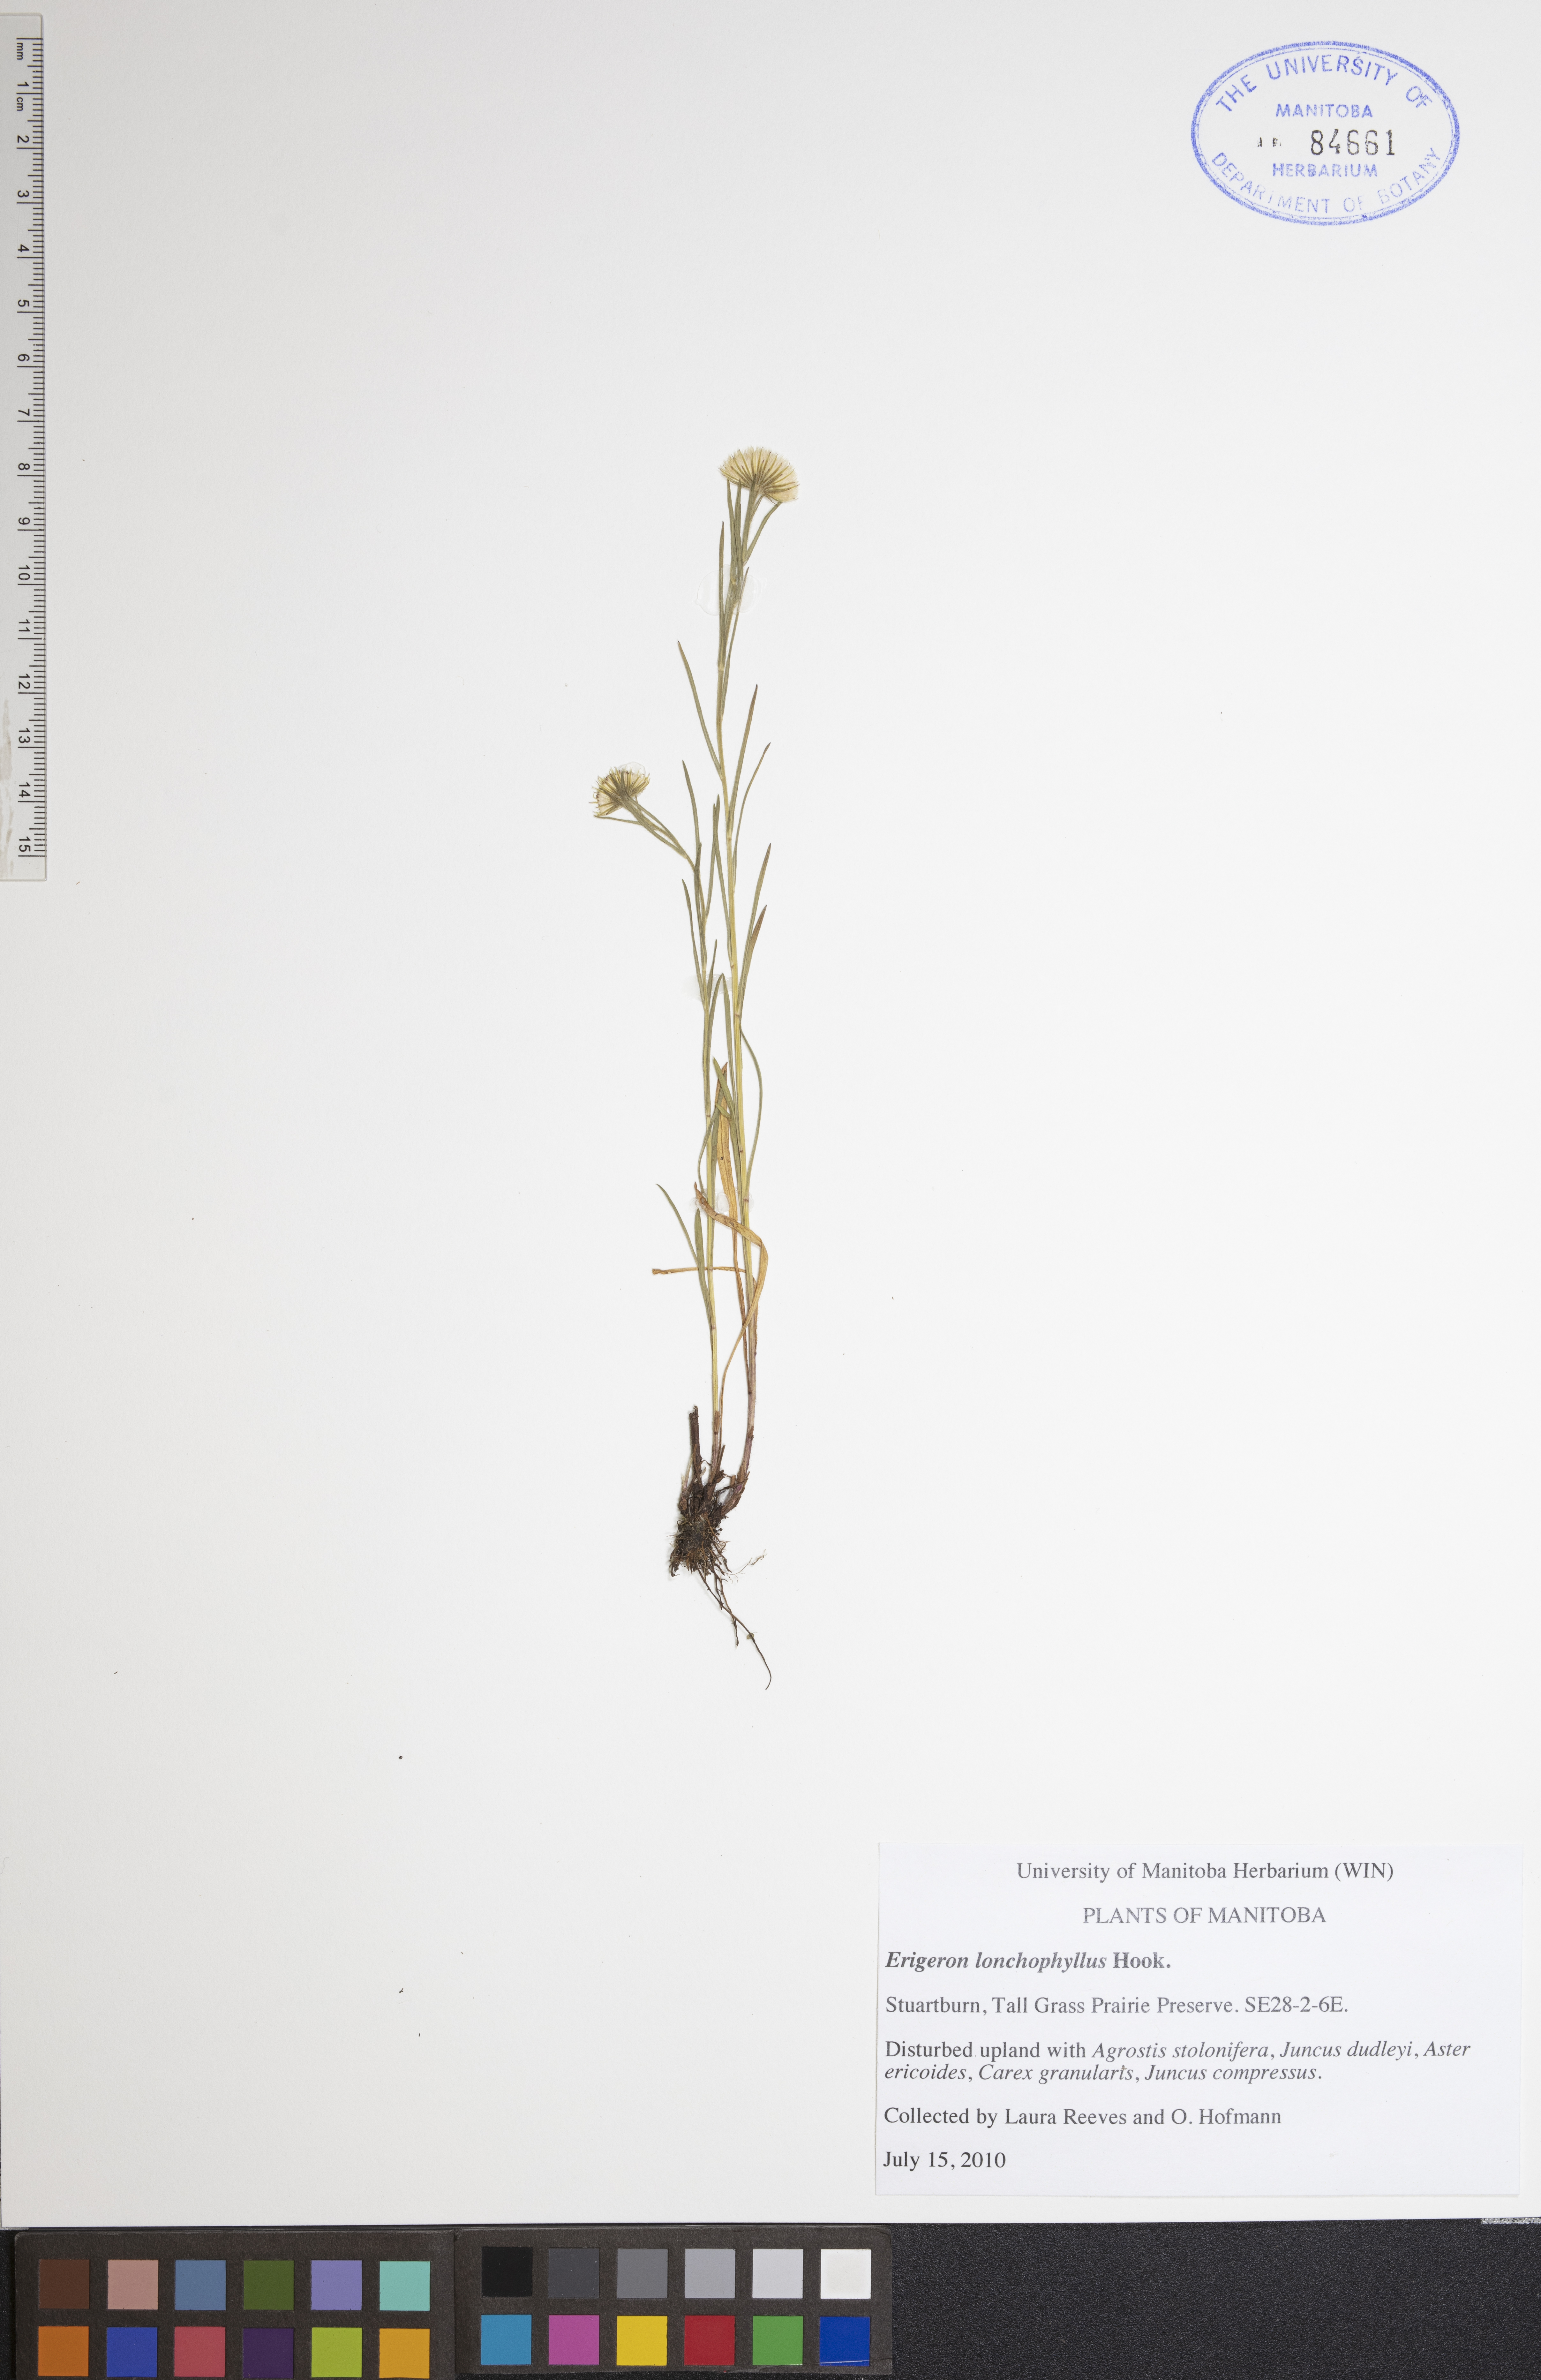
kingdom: Plantae
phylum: Tracheophyta
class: Magnoliopsida
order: Asterales
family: Asteraceae
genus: Erigeron
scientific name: Erigeron lonchophyllus
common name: Short-ray fleabane
